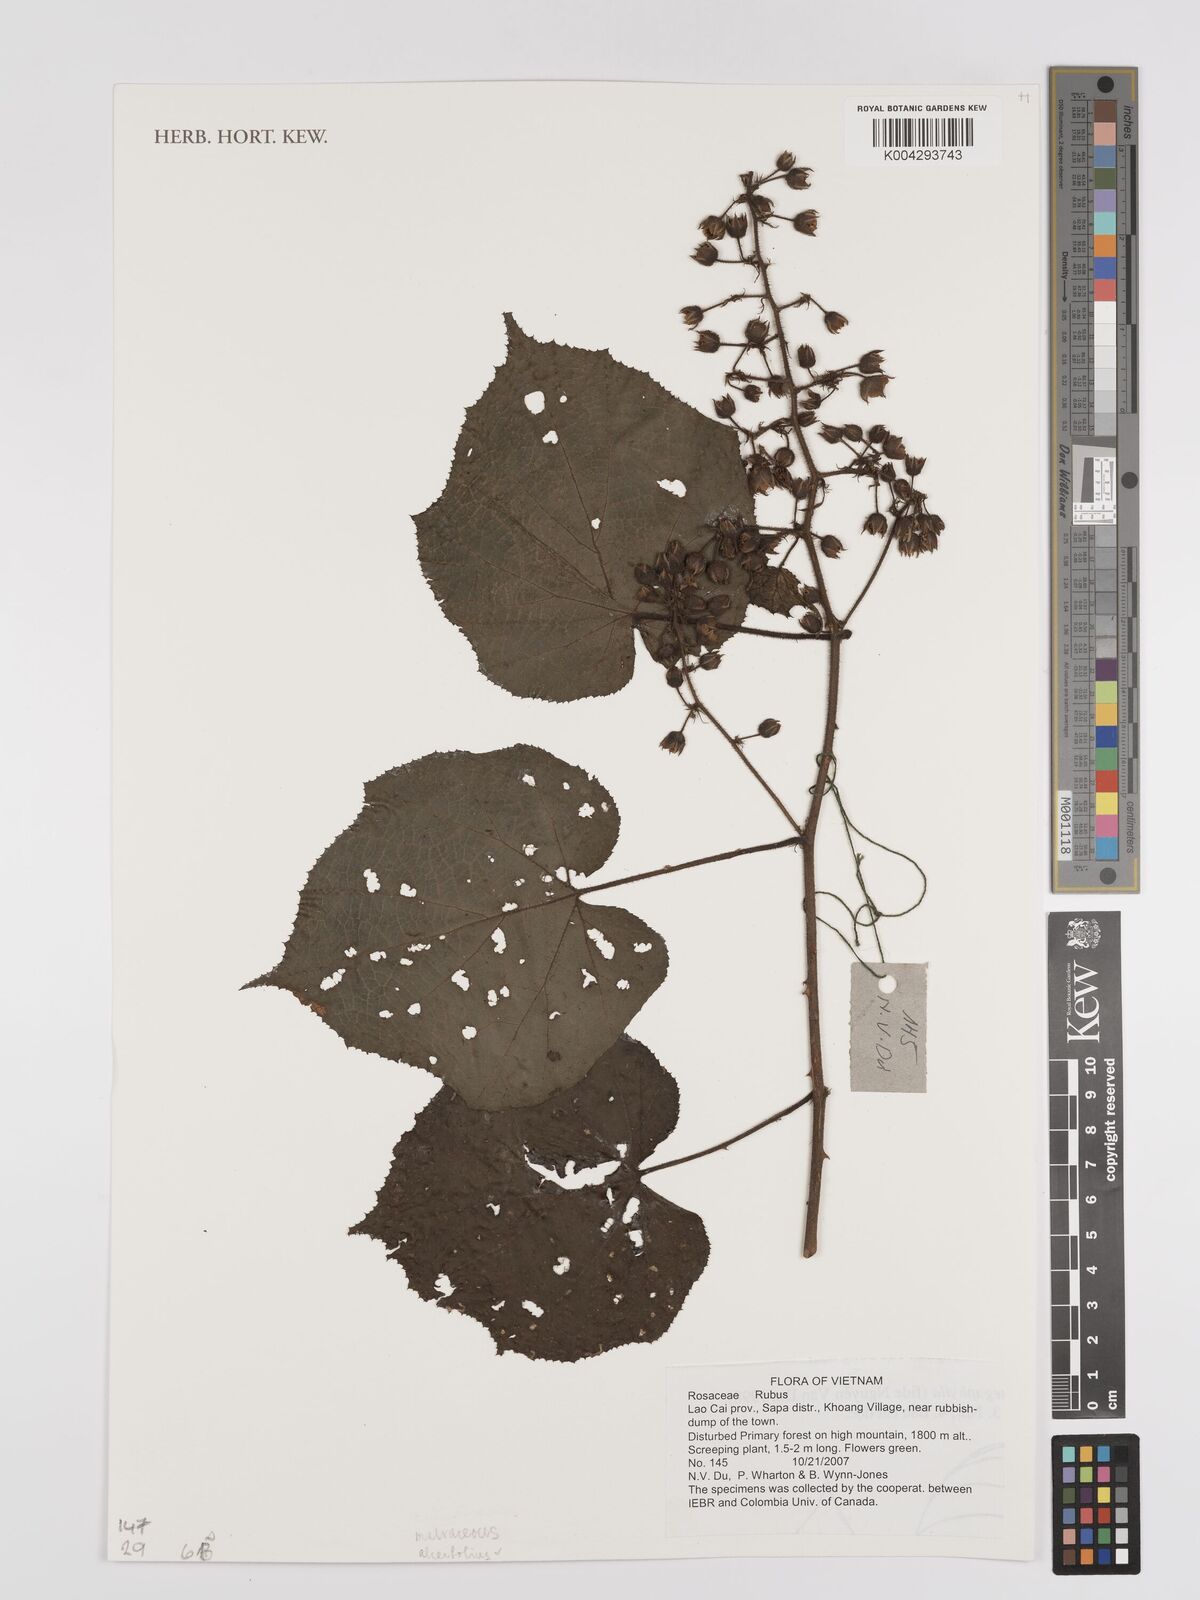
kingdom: Plantae
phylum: Tracheophyta
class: Magnoliopsida
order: Rosales
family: Rosaceae
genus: Rubus
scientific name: Rubus
